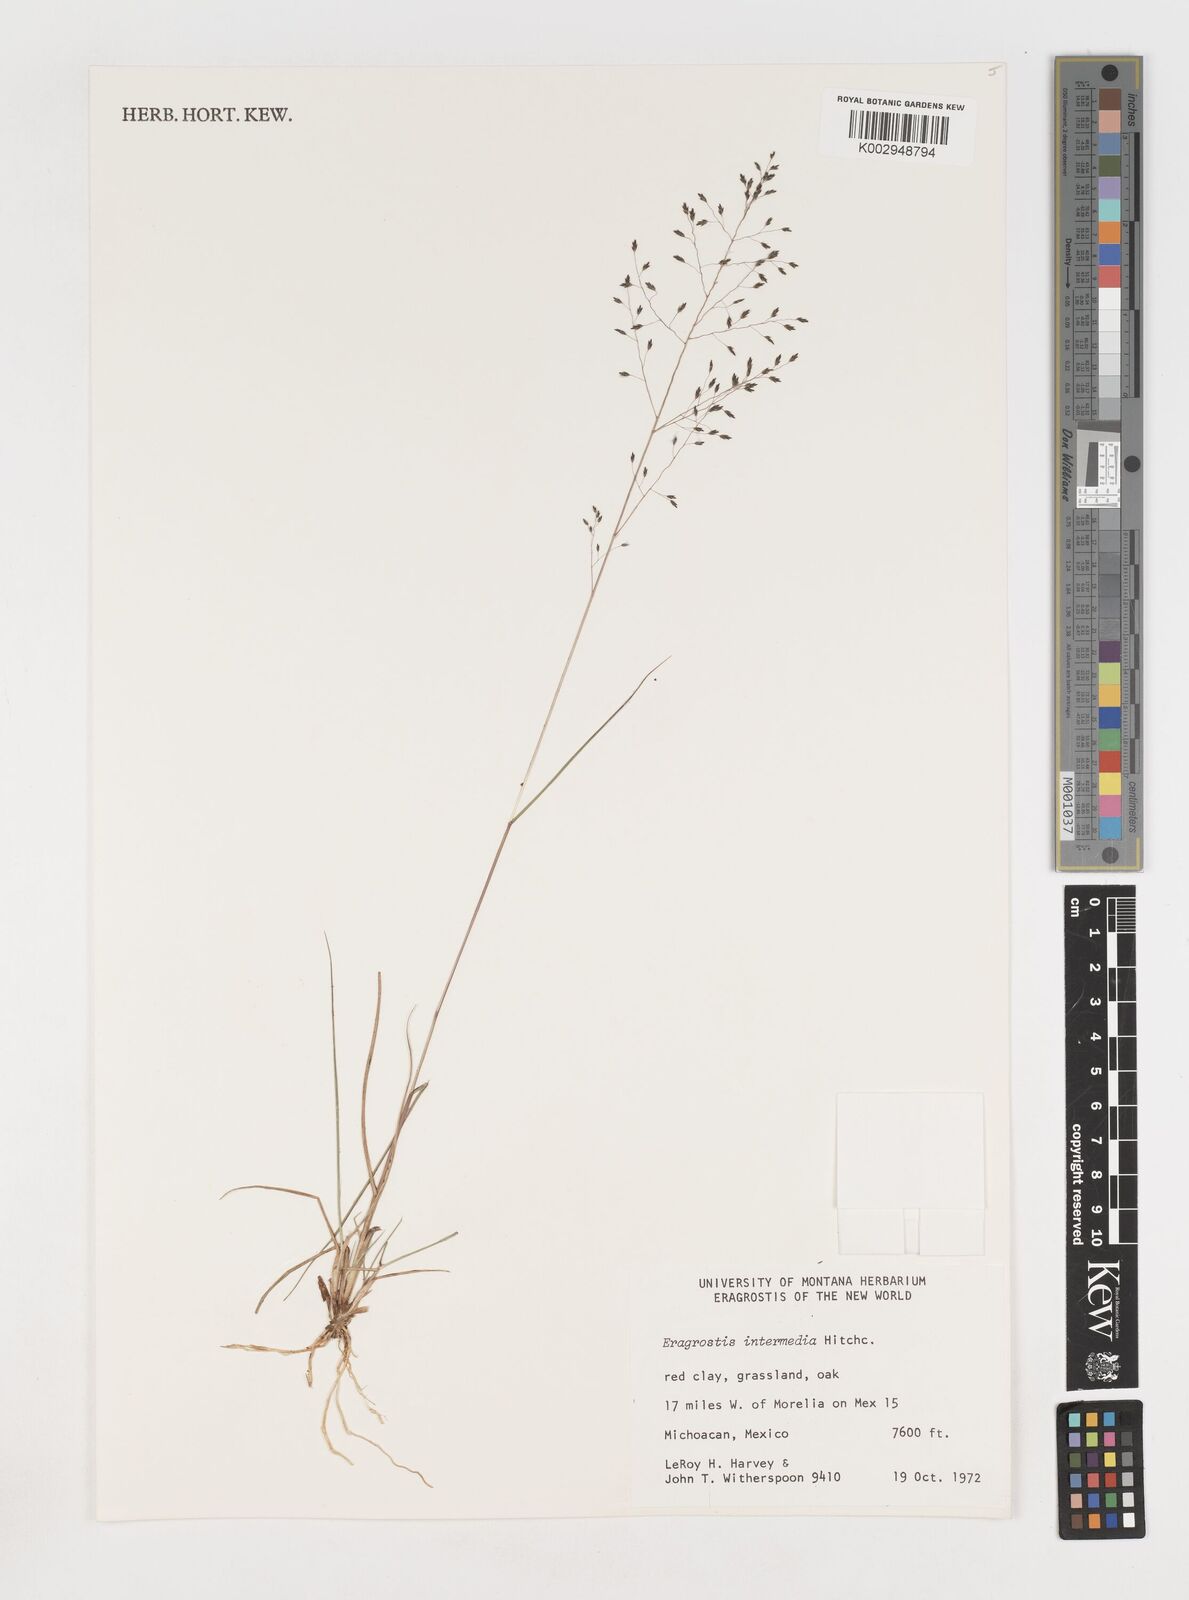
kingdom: Plantae
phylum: Tracheophyta
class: Liliopsida
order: Poales
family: Poaceae
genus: Eragrostis
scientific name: Eragrostis intermedia
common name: Plains love grass
